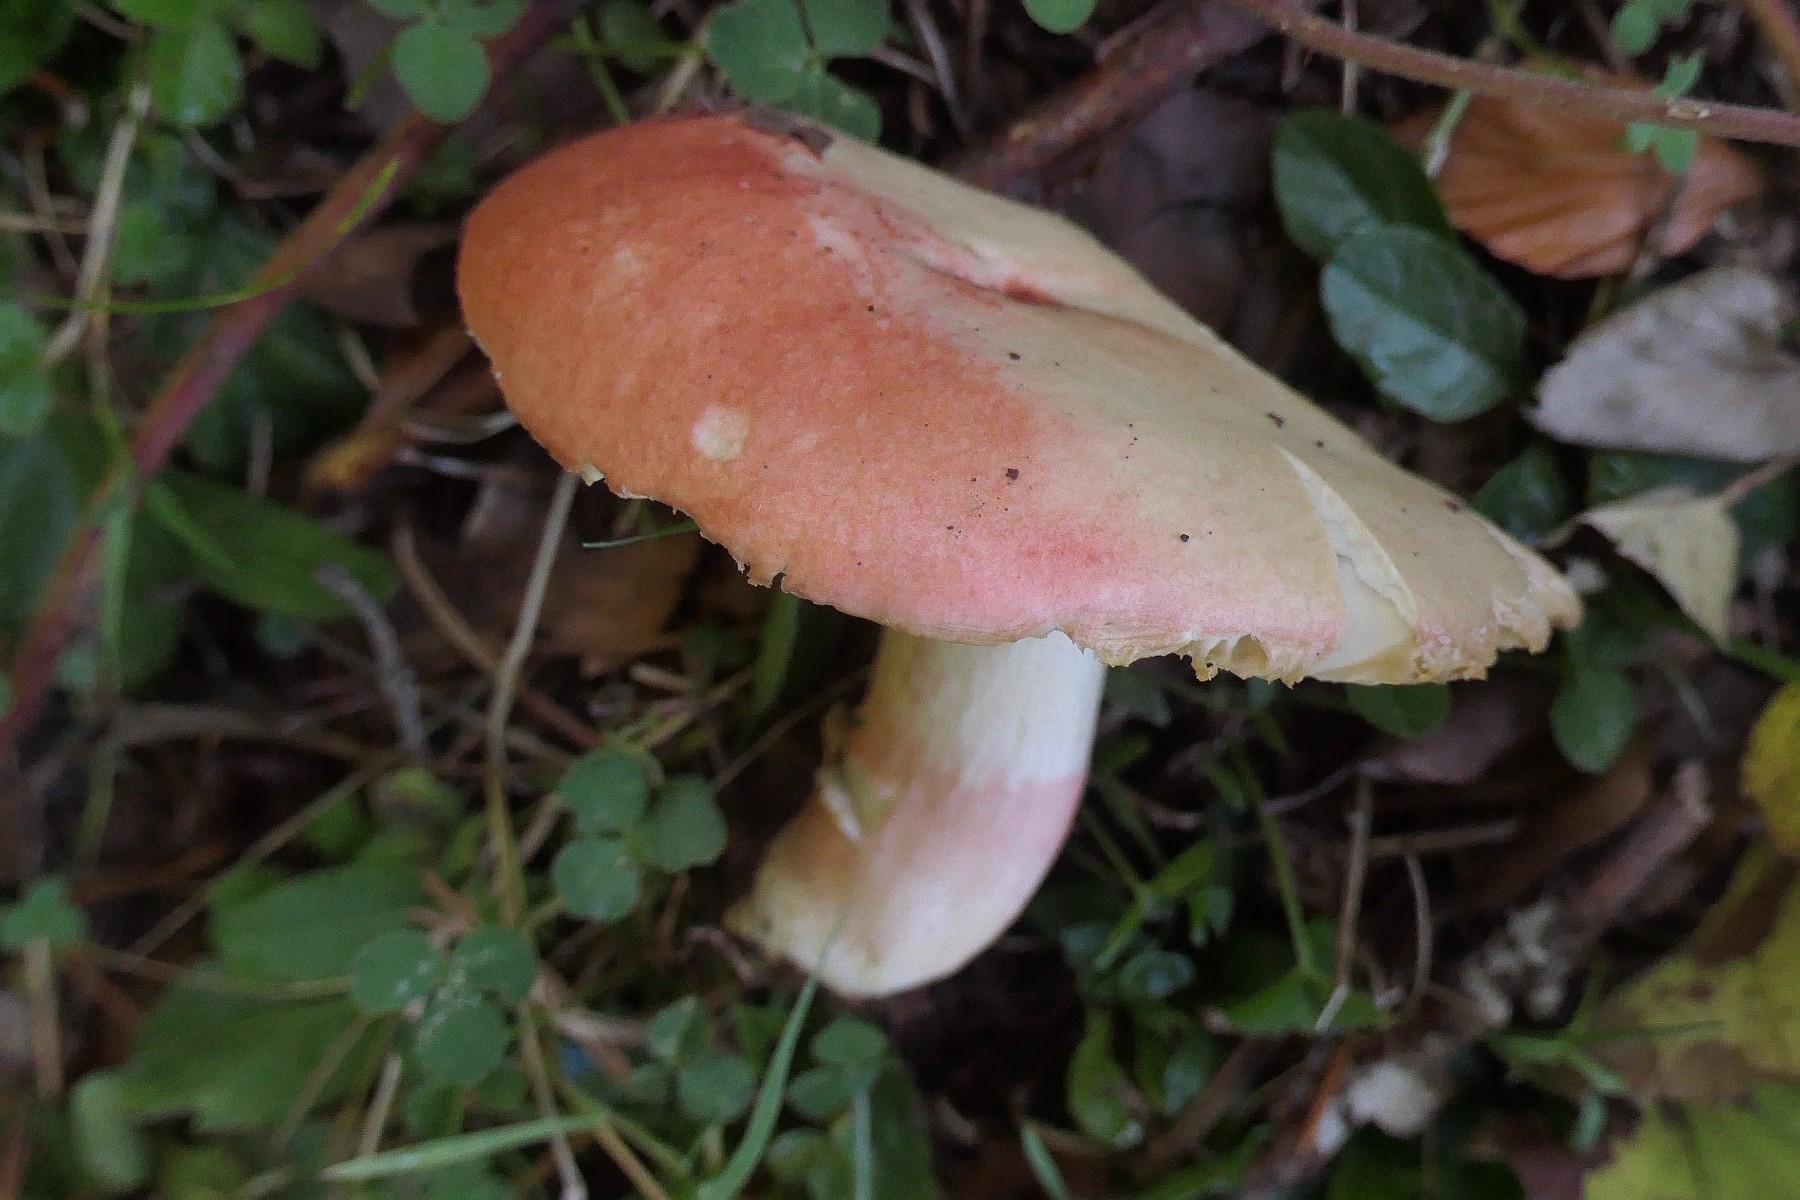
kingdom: Fungi
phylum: Basidiomycota
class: Agaricomycetes
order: Russulales
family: Russulaceae
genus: Russula
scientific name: Russula sanguinea
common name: blodrød skørhat
